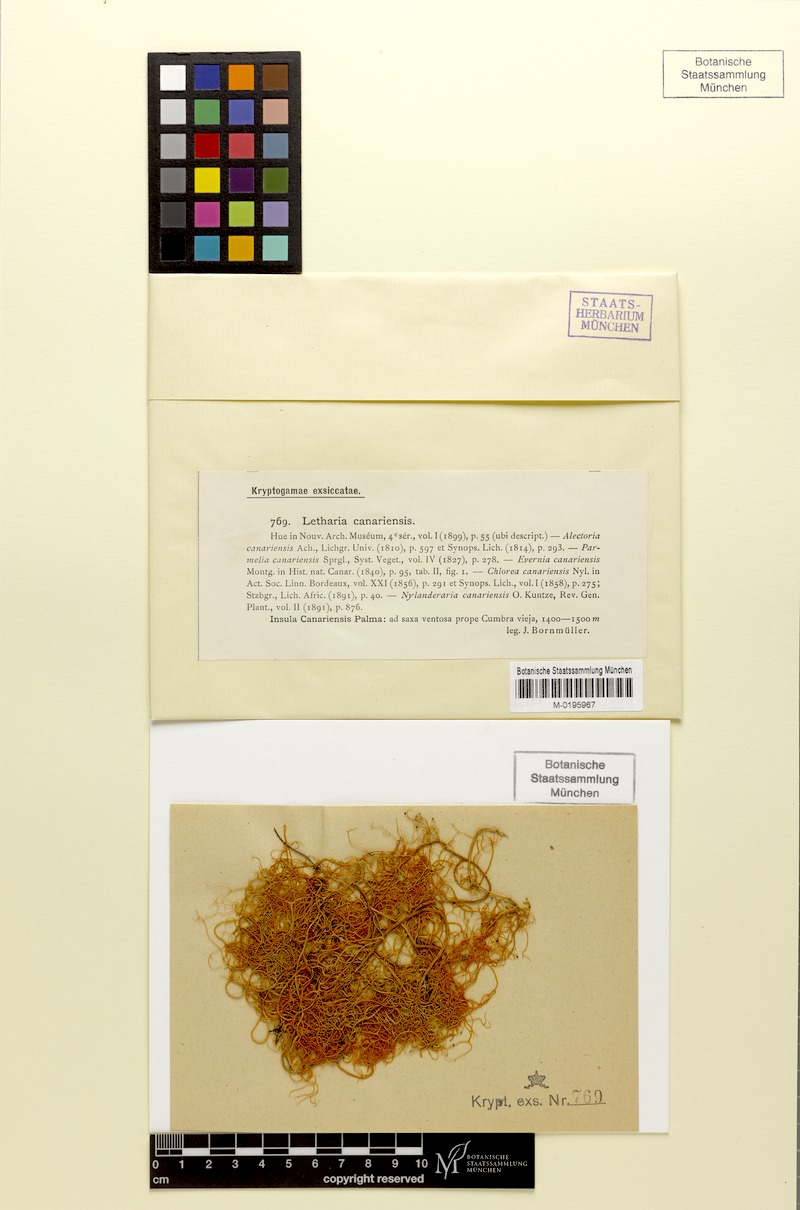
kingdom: Fungi
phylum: Ascomycota
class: Lecanoromycetes
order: Lecanorales
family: Parmeliaceae
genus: Lethariella
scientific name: Lethariella canariensis
